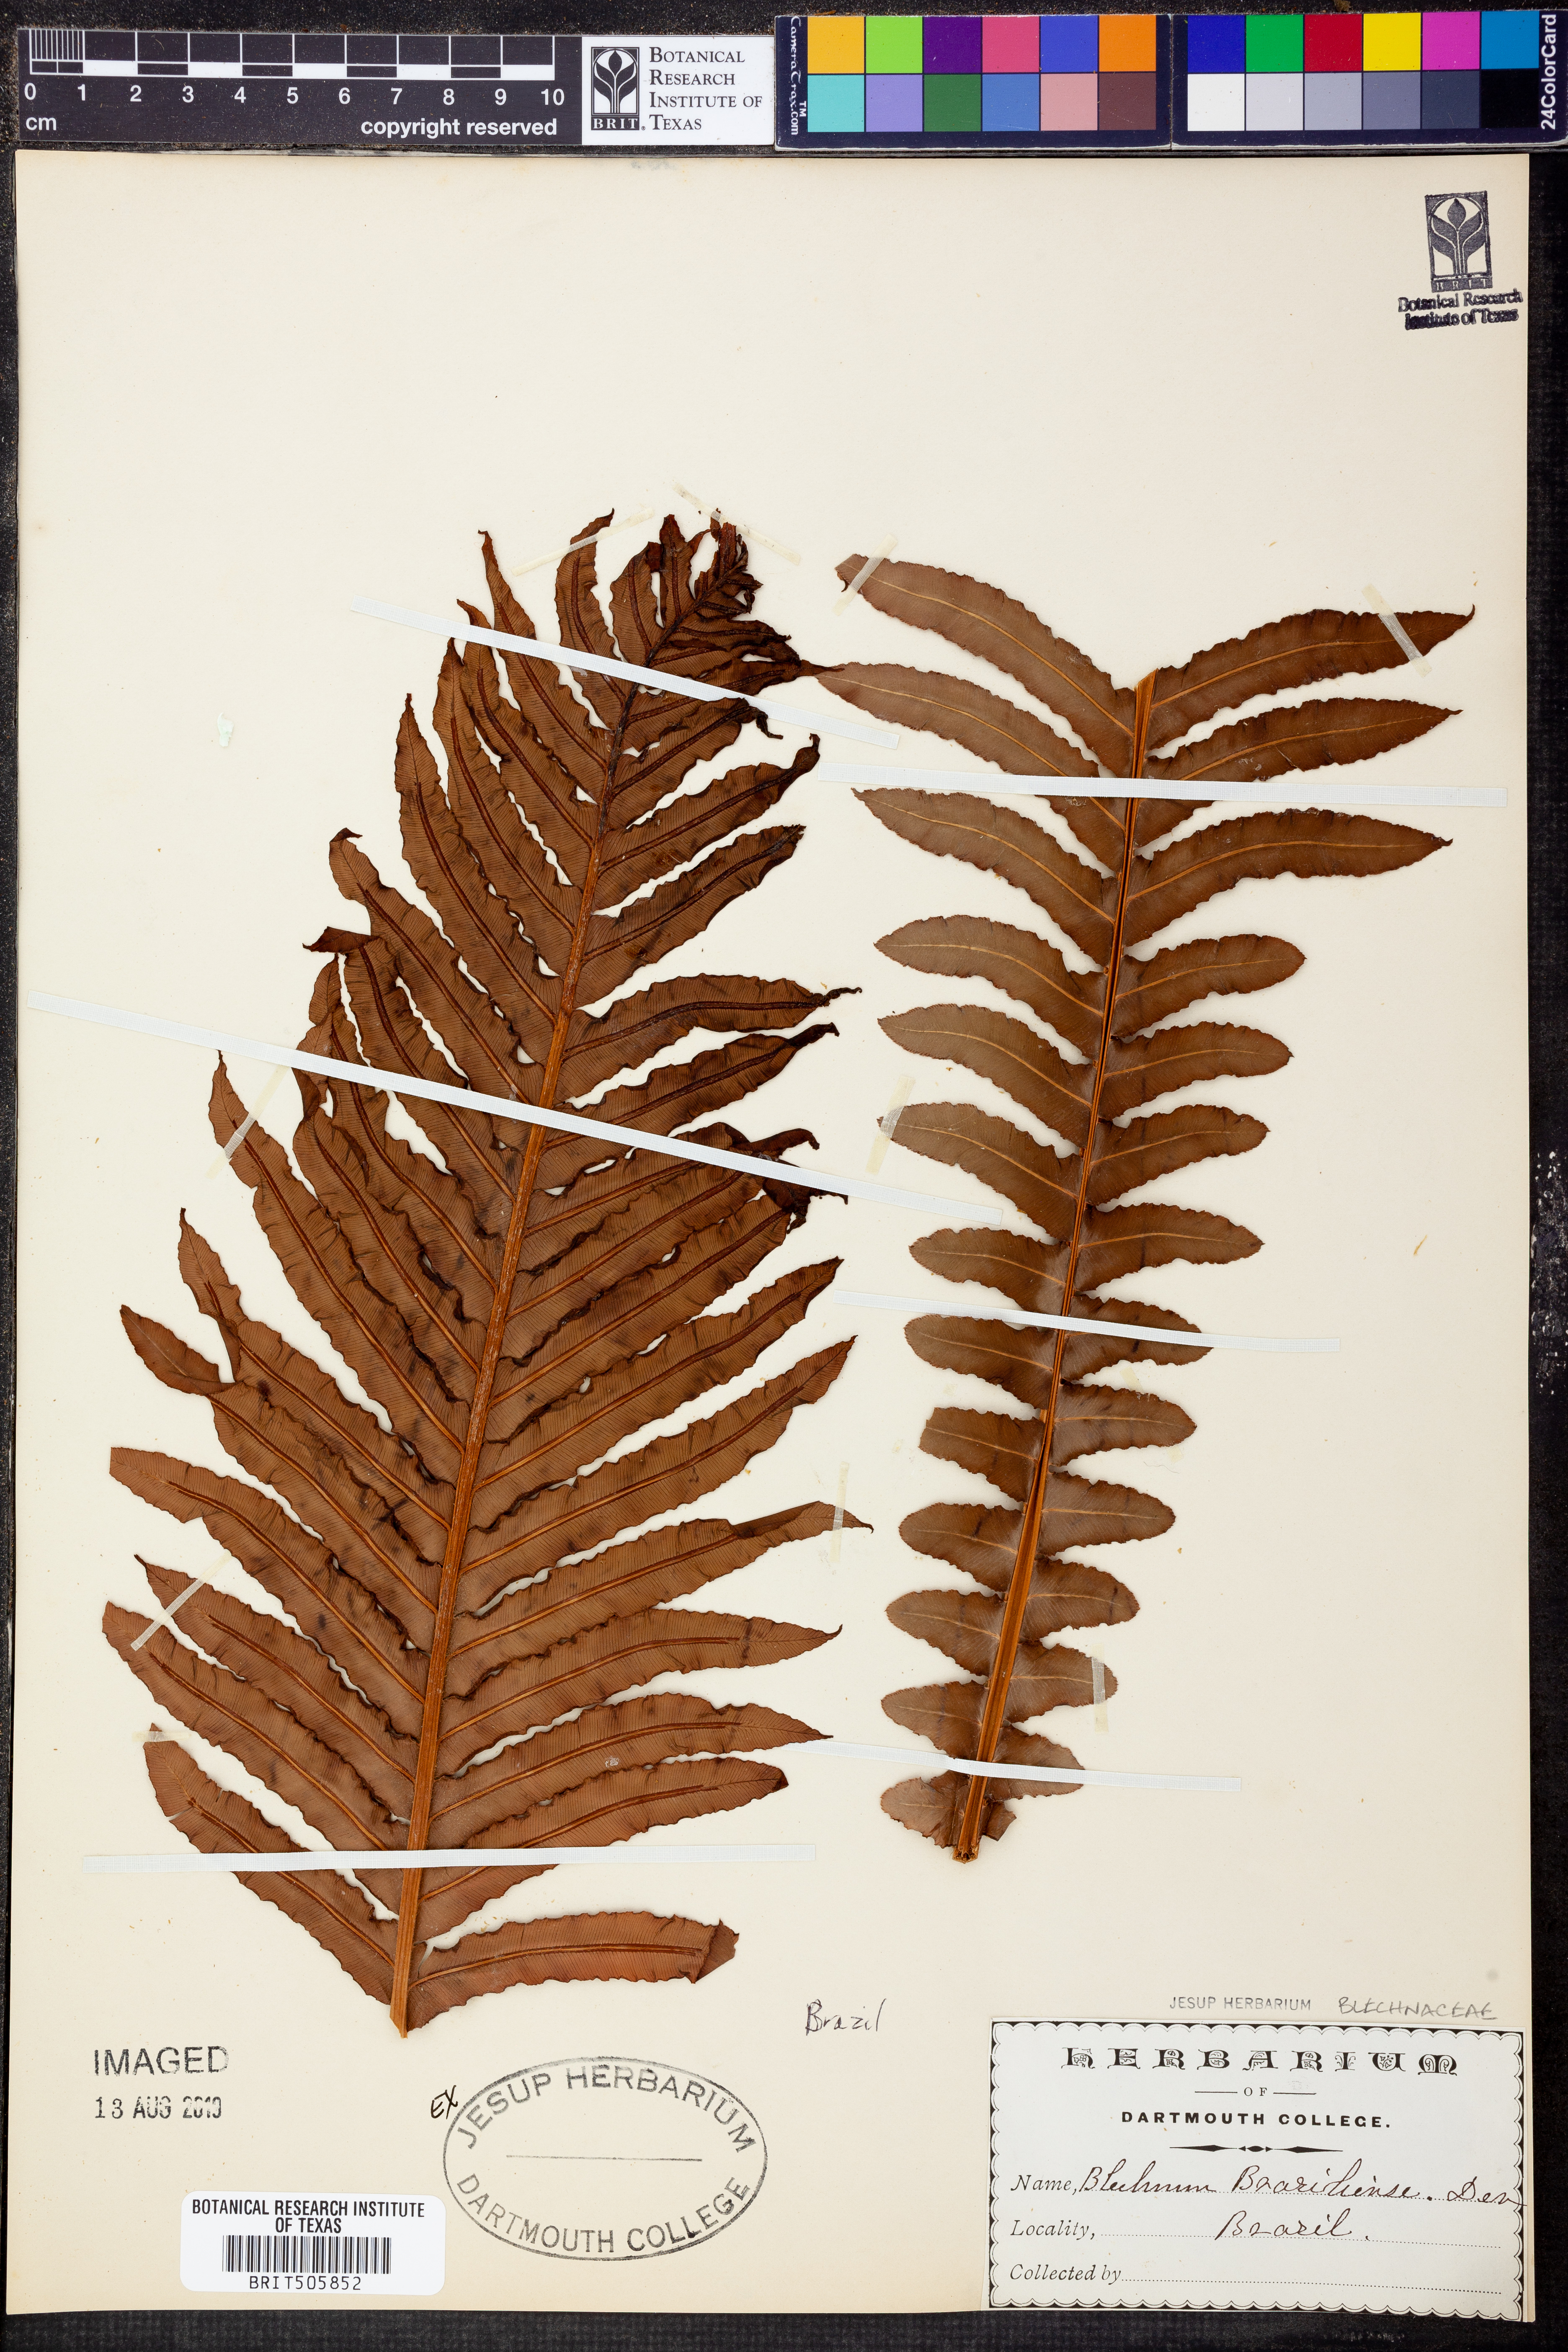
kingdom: Plantae
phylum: Tracheophyta
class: Polypodiopsida
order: Polypodiales
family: Blechnaceae
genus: Neoblechnum
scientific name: Neoblechnum brasiliense
